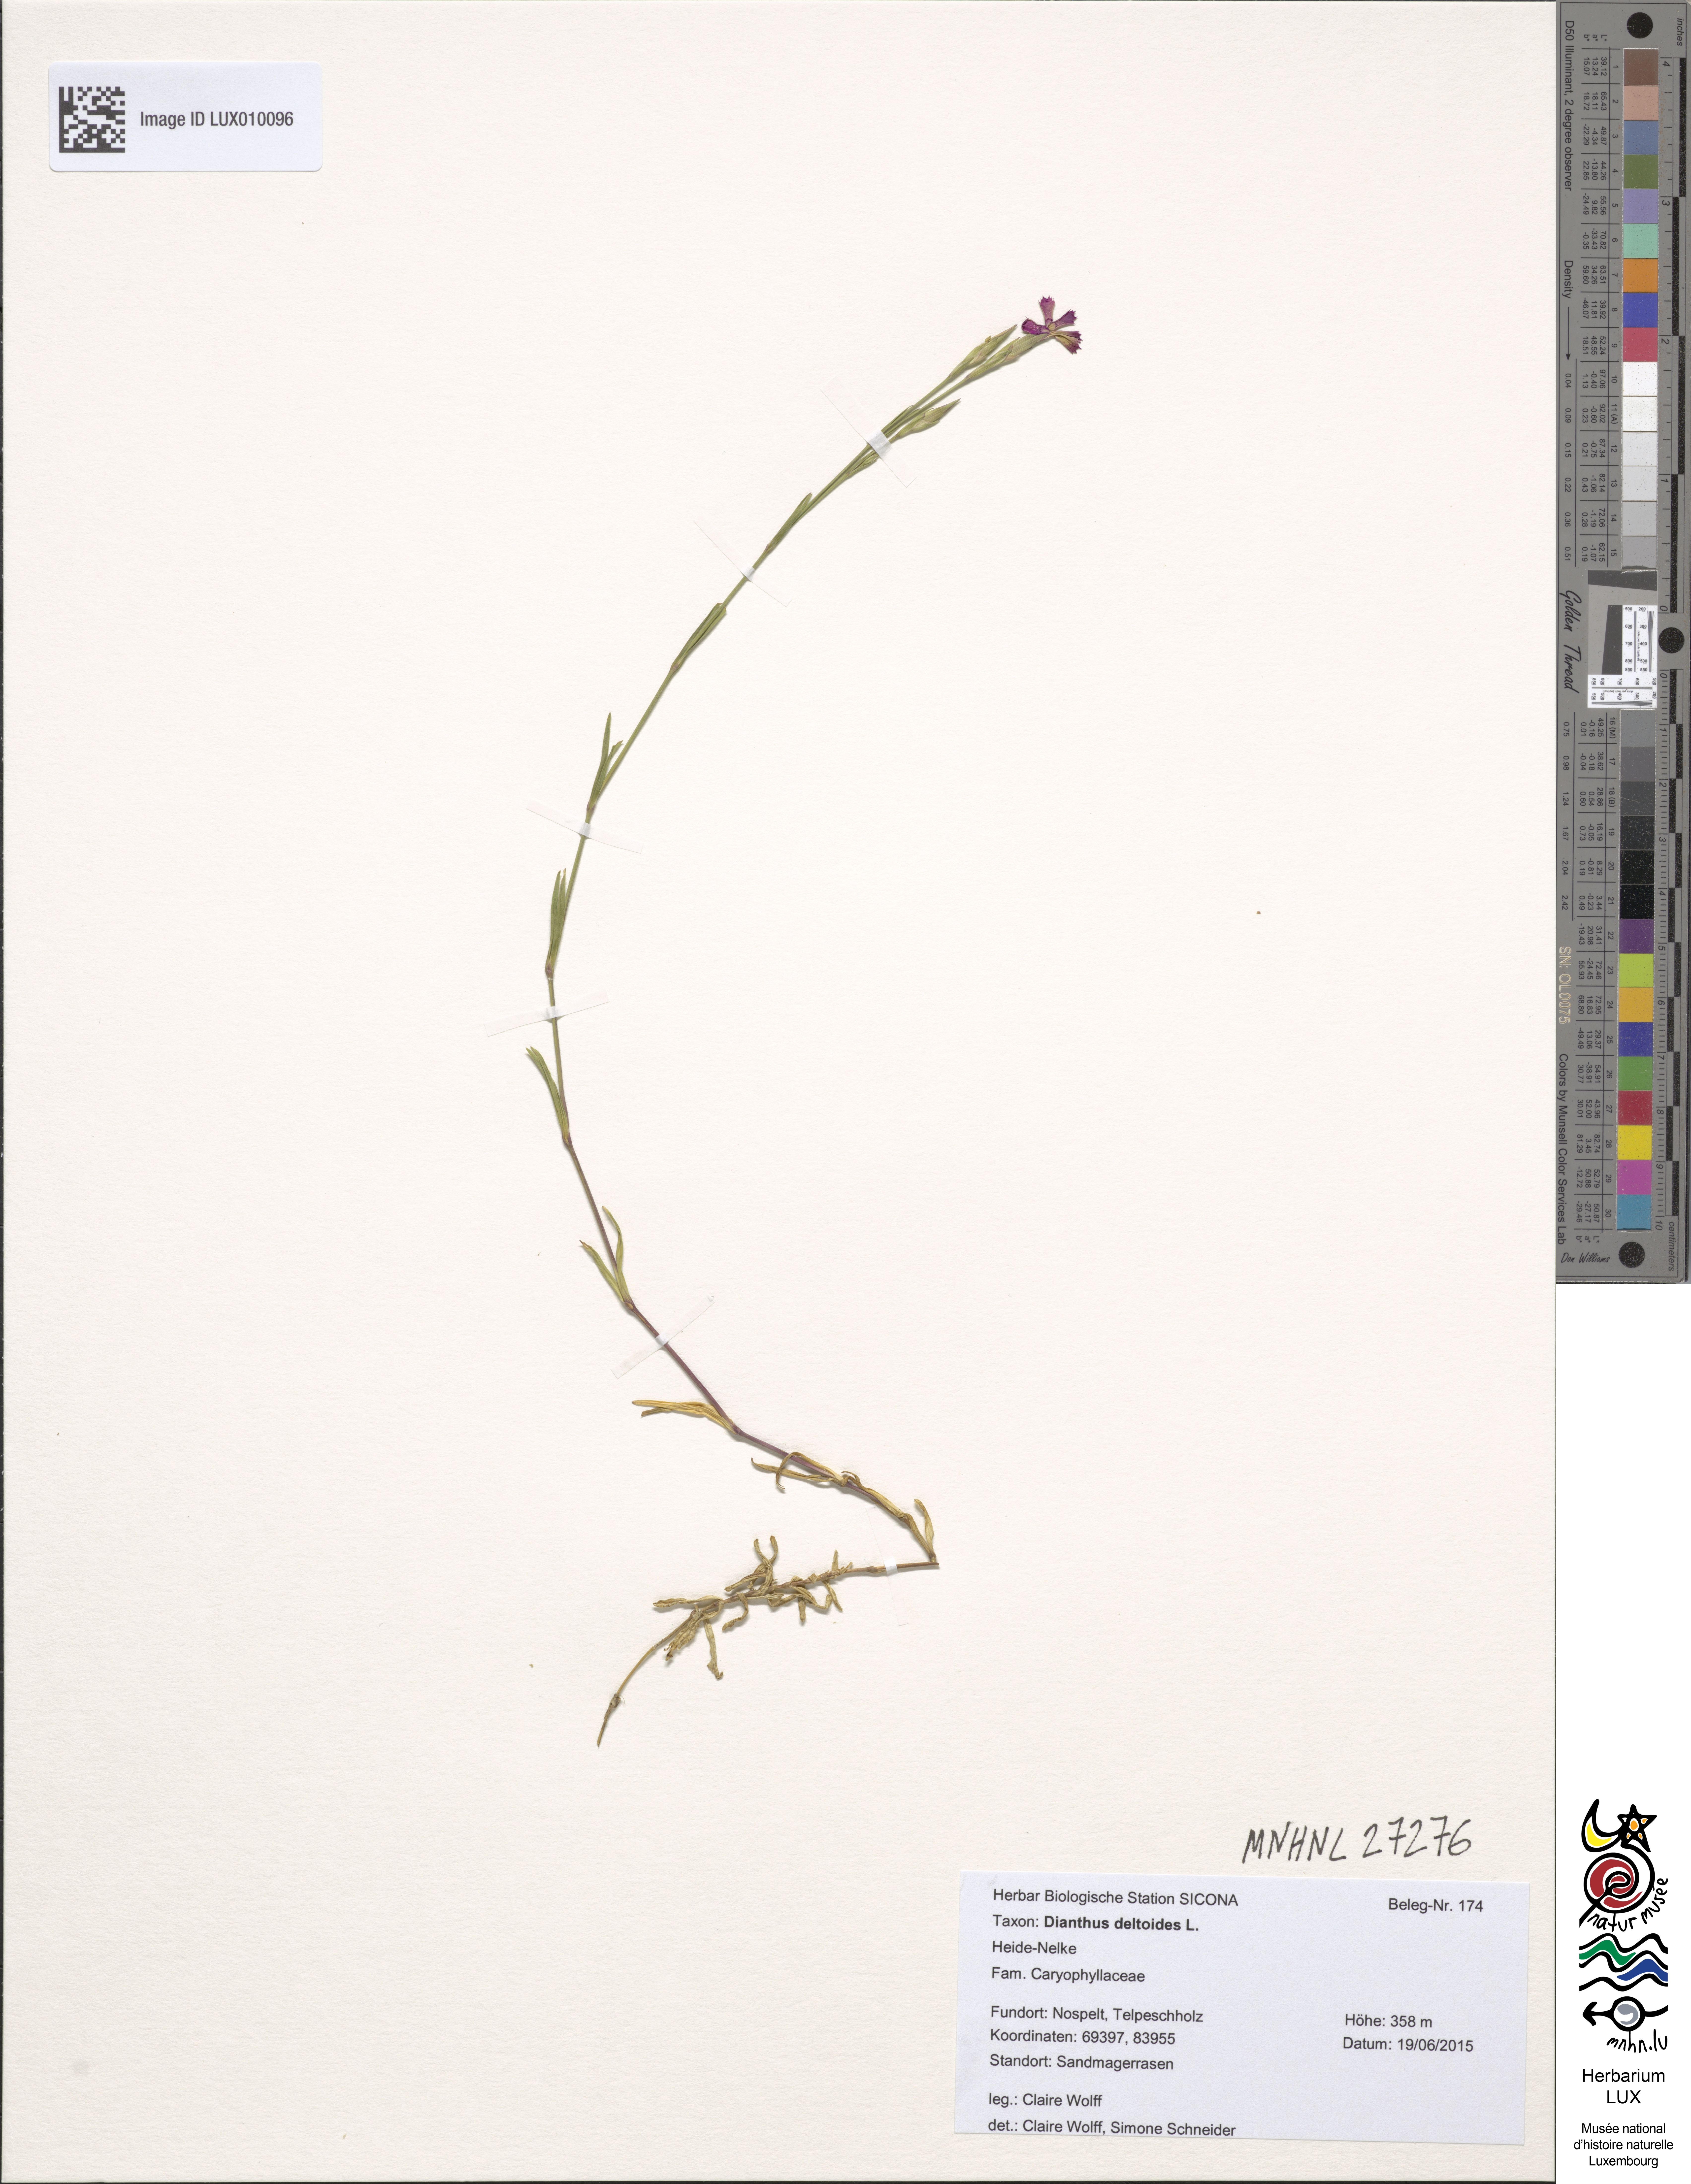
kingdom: Plantae
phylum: Tracheophyta
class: Magnoliopsida
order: Caryophyllales
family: Caryophyllaceae
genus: Dianthus
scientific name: Dianthus deltoides
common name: Maiden pink
